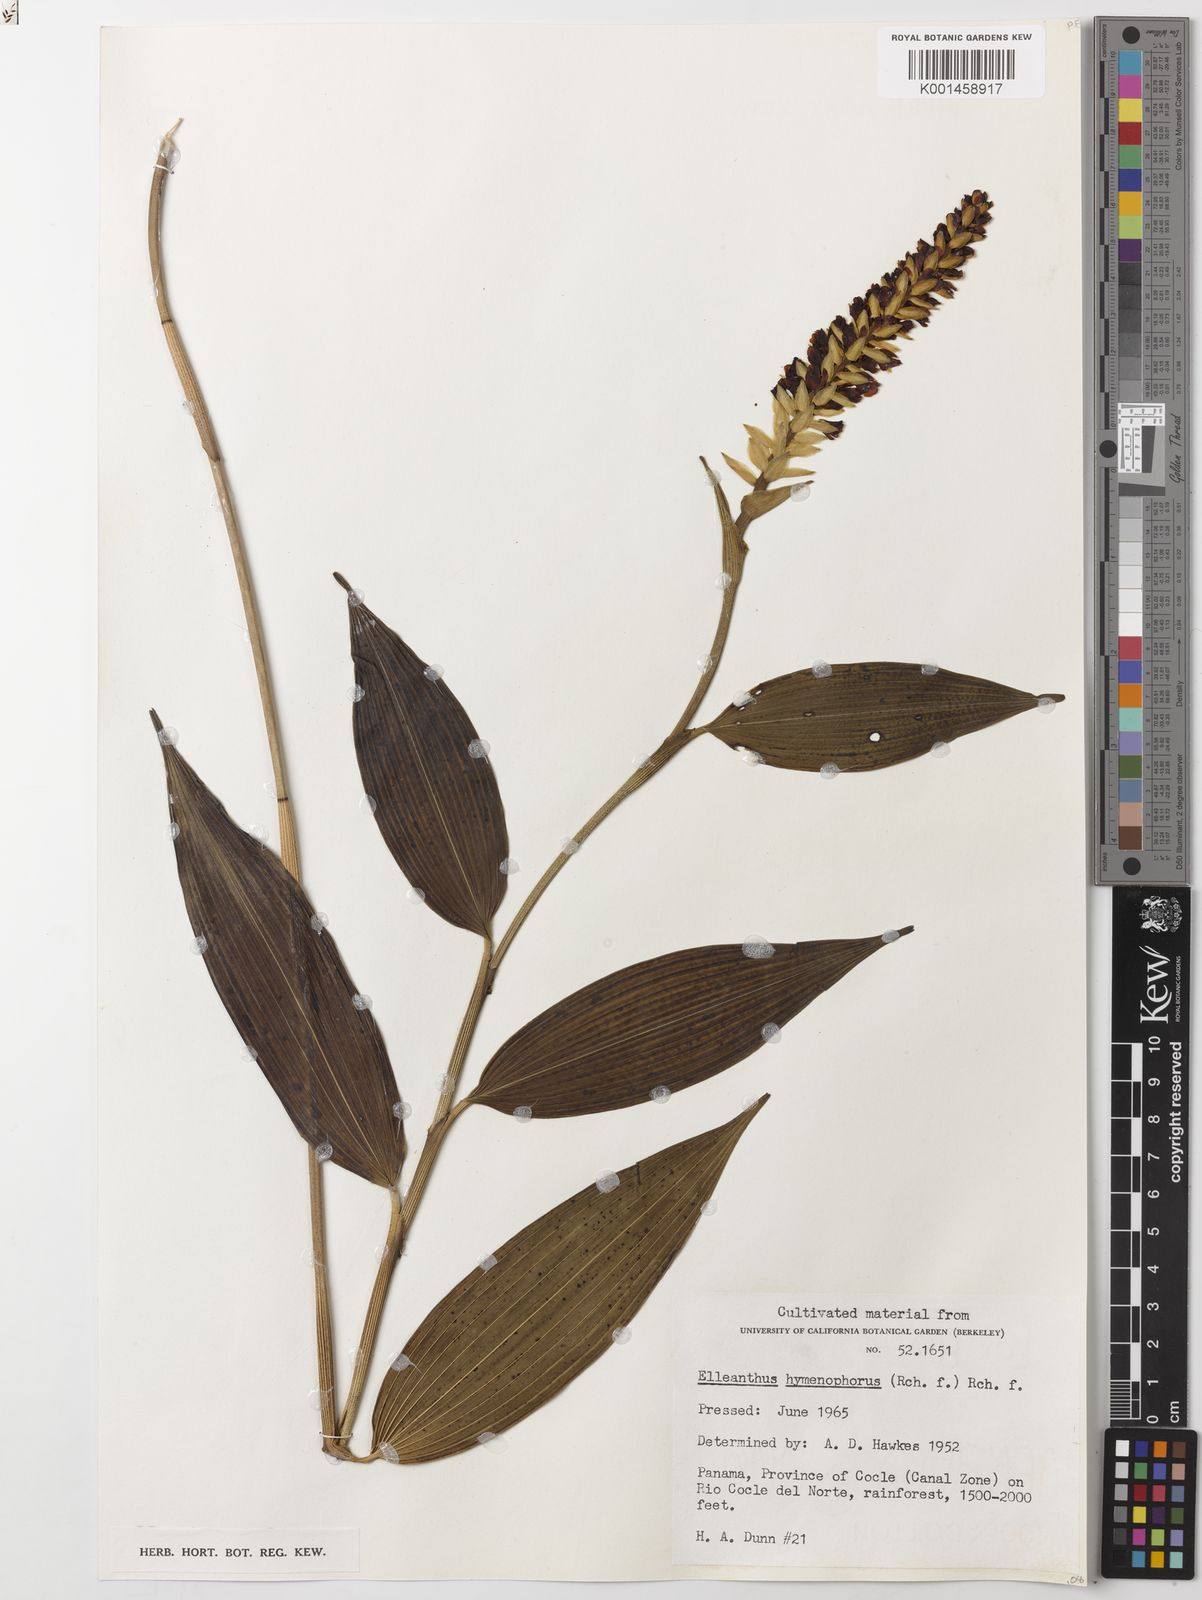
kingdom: Plantae
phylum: Tracheophyta
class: Liliopsida
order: Asparagales
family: Orchidaceae
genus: Elleanthus
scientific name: Elleanthus hymenophorus
